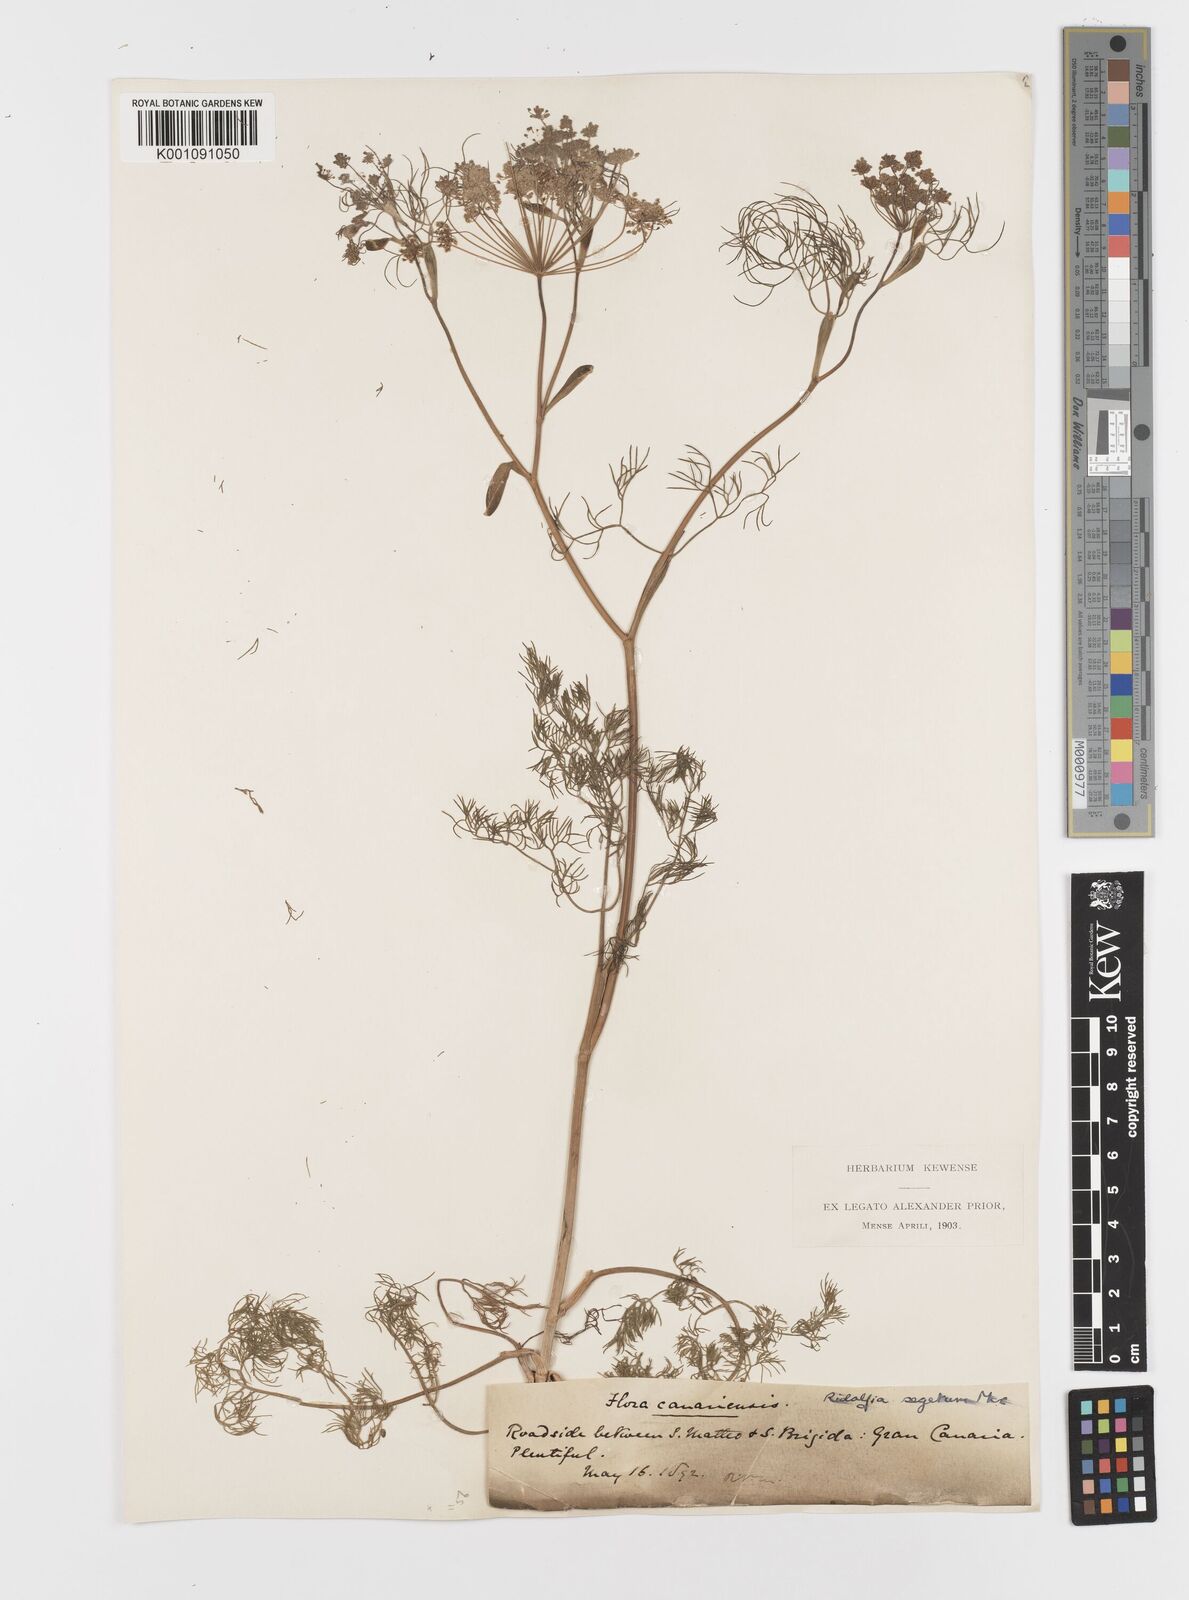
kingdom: Plantae
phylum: Tracheophyta
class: Magnoliopsida
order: Apiales
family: Apiaceae
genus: Anethum
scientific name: Anethum ridolfia
